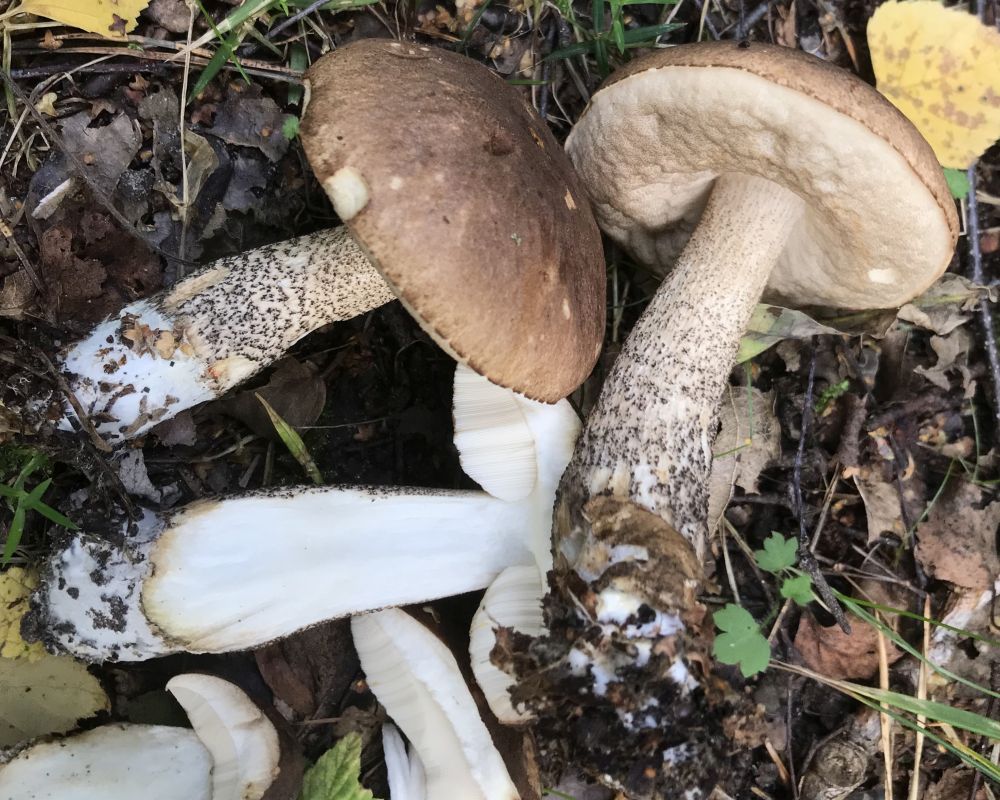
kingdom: Fungi
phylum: Basidiomycota
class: Agaricomycetes
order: Boletales
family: Boletaceae
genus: Leccinum
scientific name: Leccinum scabrum
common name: brun skælrørhat
